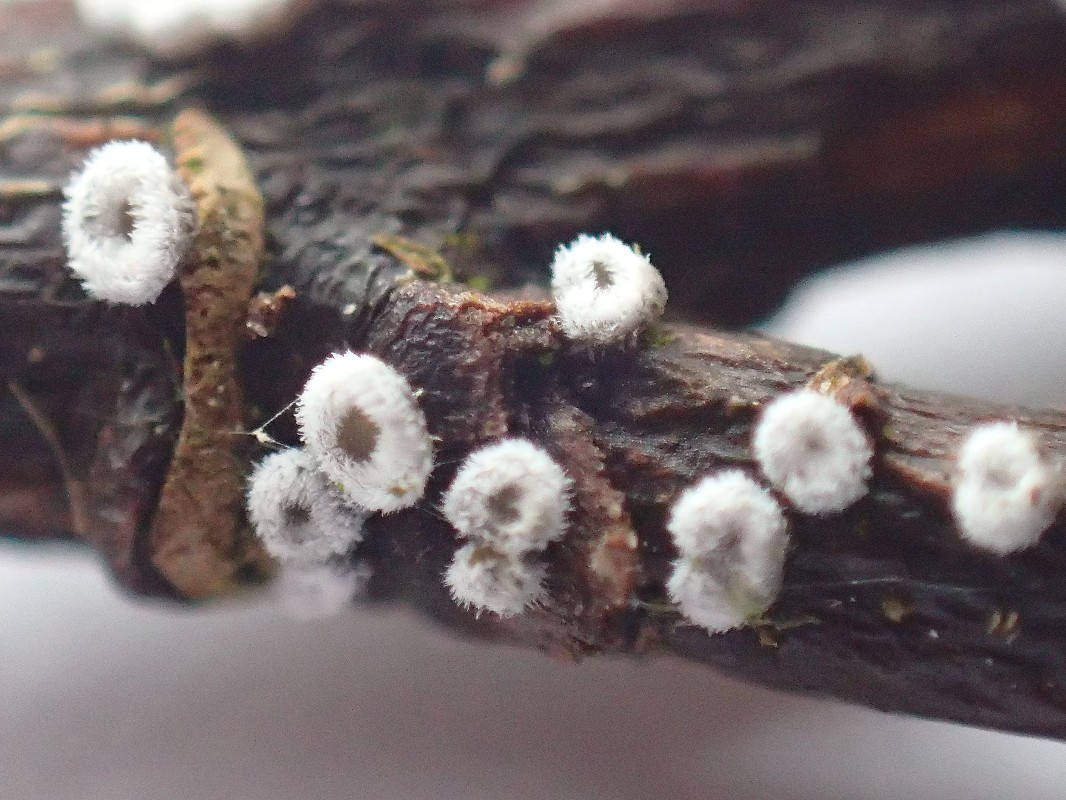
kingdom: Fungi
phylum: Basidiomycota
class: Agaricomycetes
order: Agaricales
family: Niaceae
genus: Lachnella
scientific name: Lachnella alboviolascens
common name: grå frynserede
